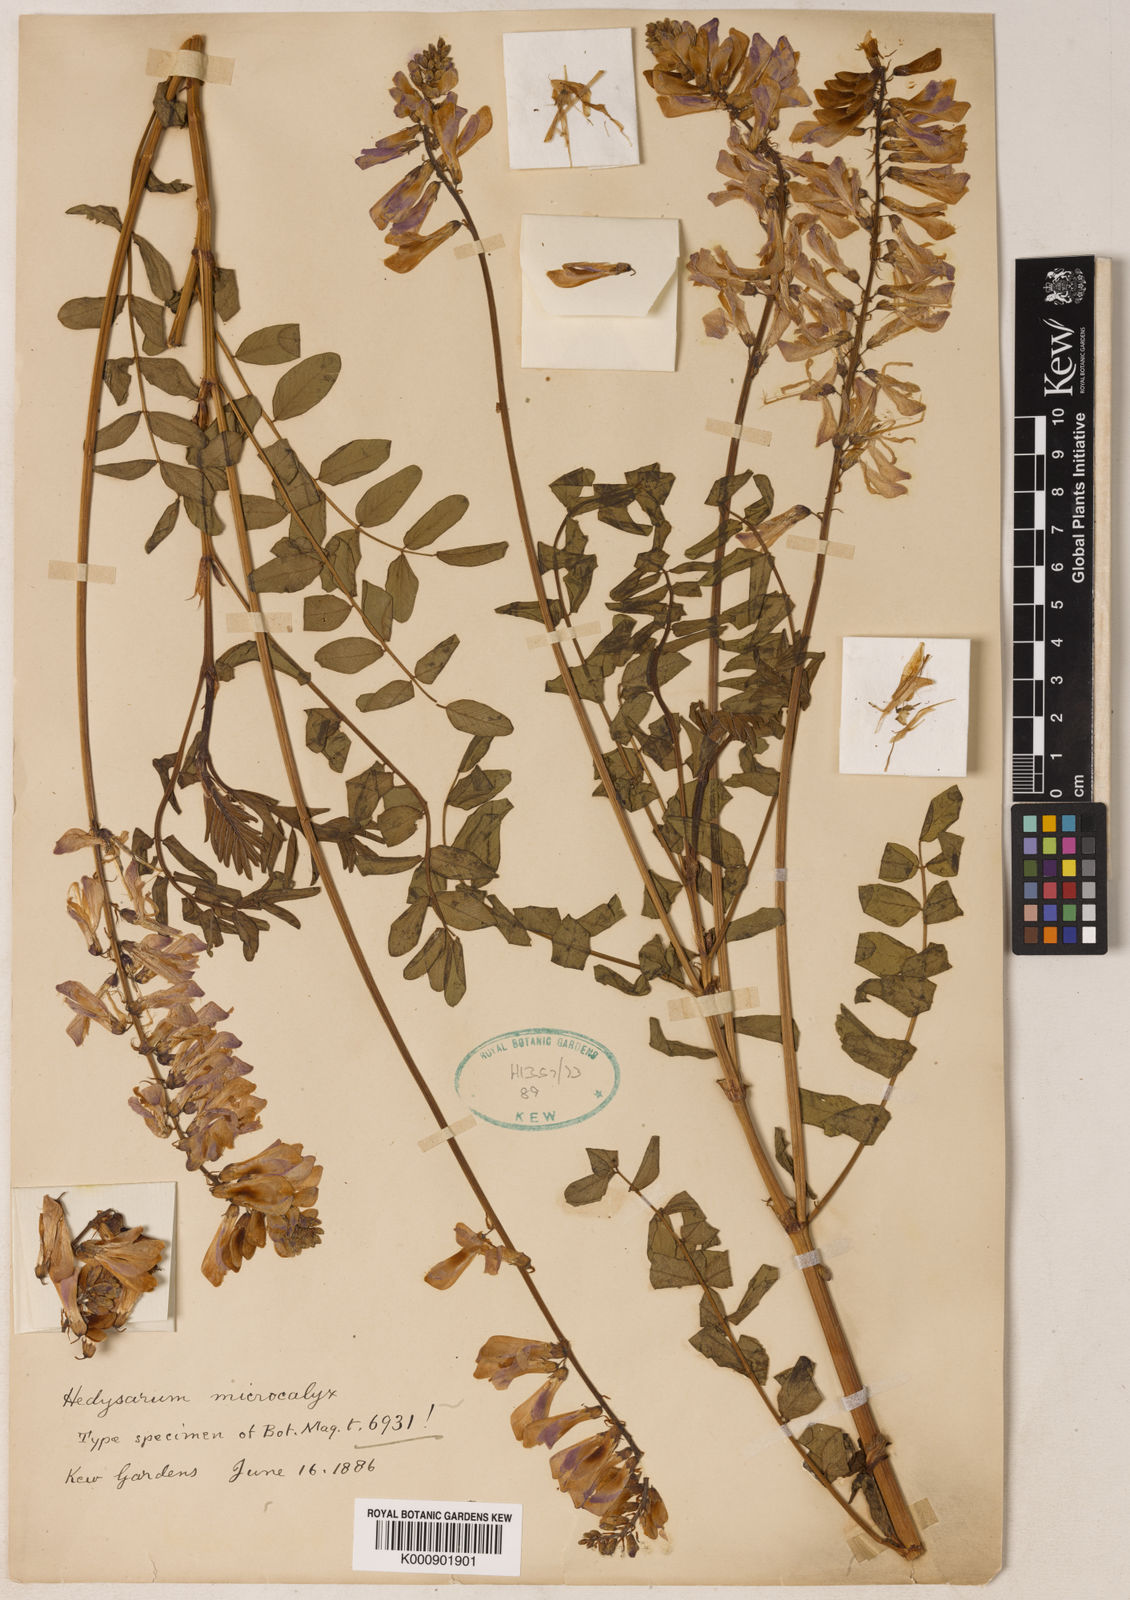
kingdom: Plantae
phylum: Tracheophyta
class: Magnoliopsida
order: Fabales
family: Fabaceae
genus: Hedysarum
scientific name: Hedysarum microcalyx
